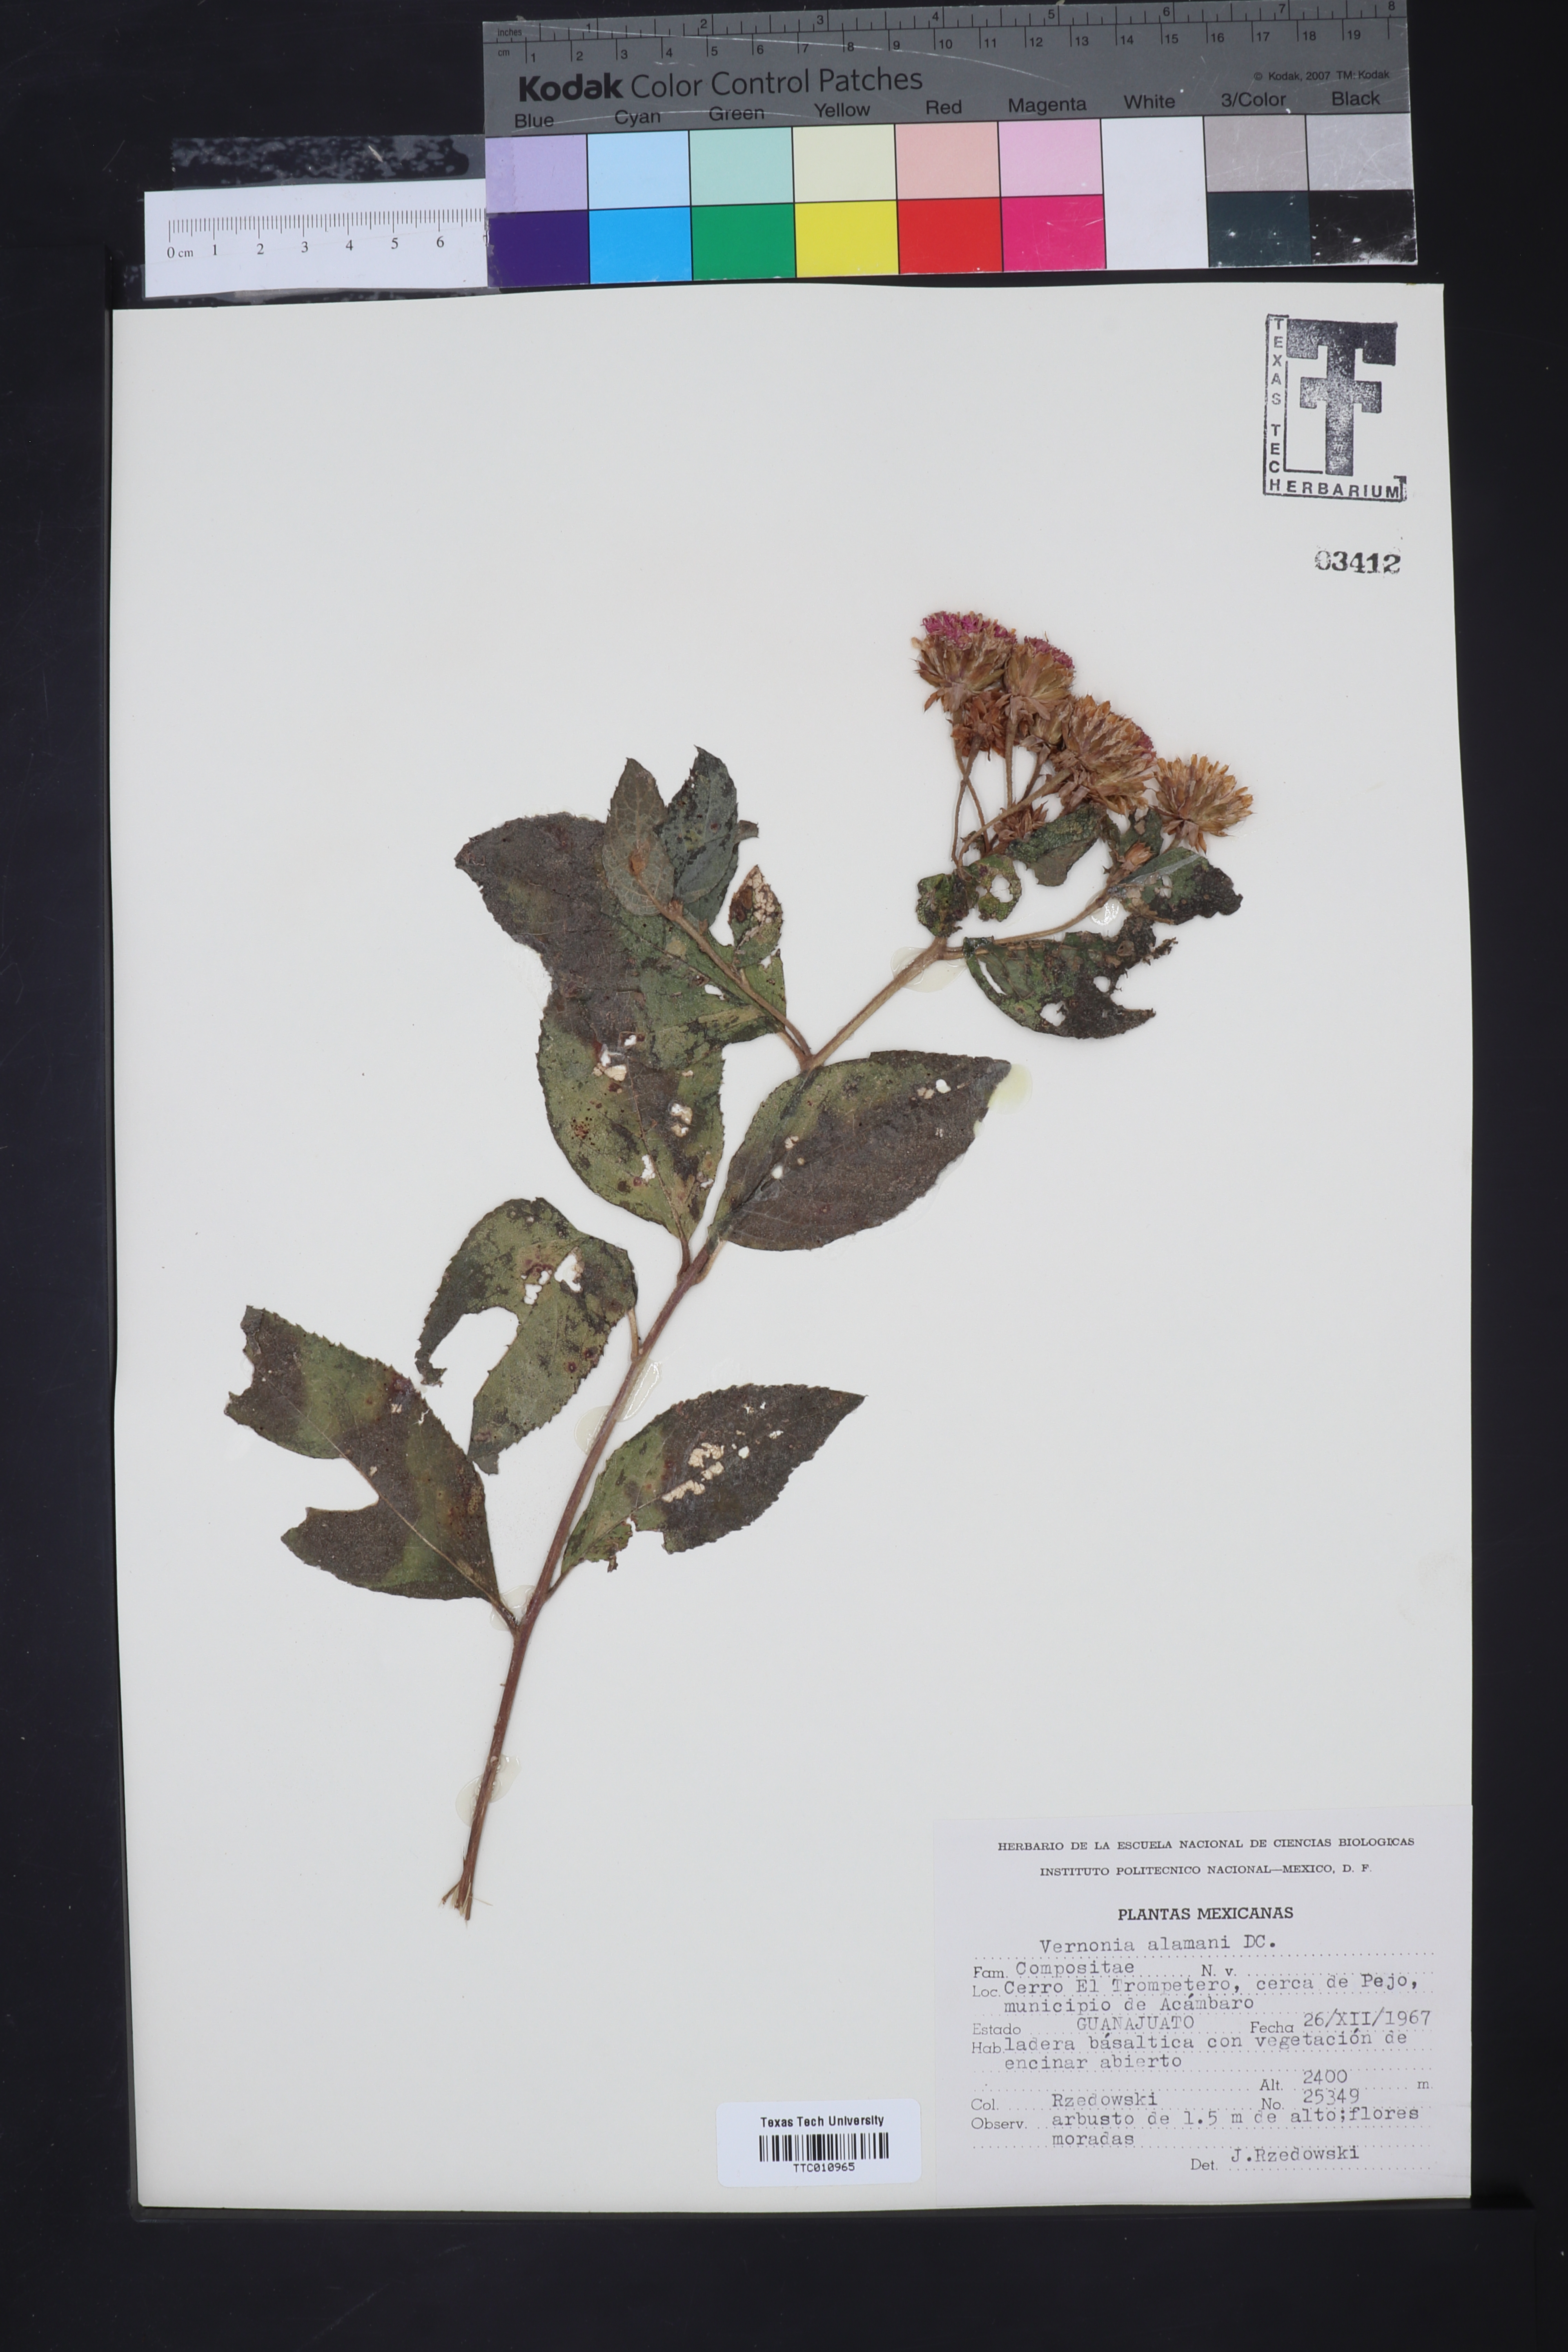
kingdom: Plantae
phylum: Tracheophyta
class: Magnoliopsida
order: Asterales
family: Asteraceae
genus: Vernonanthura
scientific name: Vernonanthura alamanii
